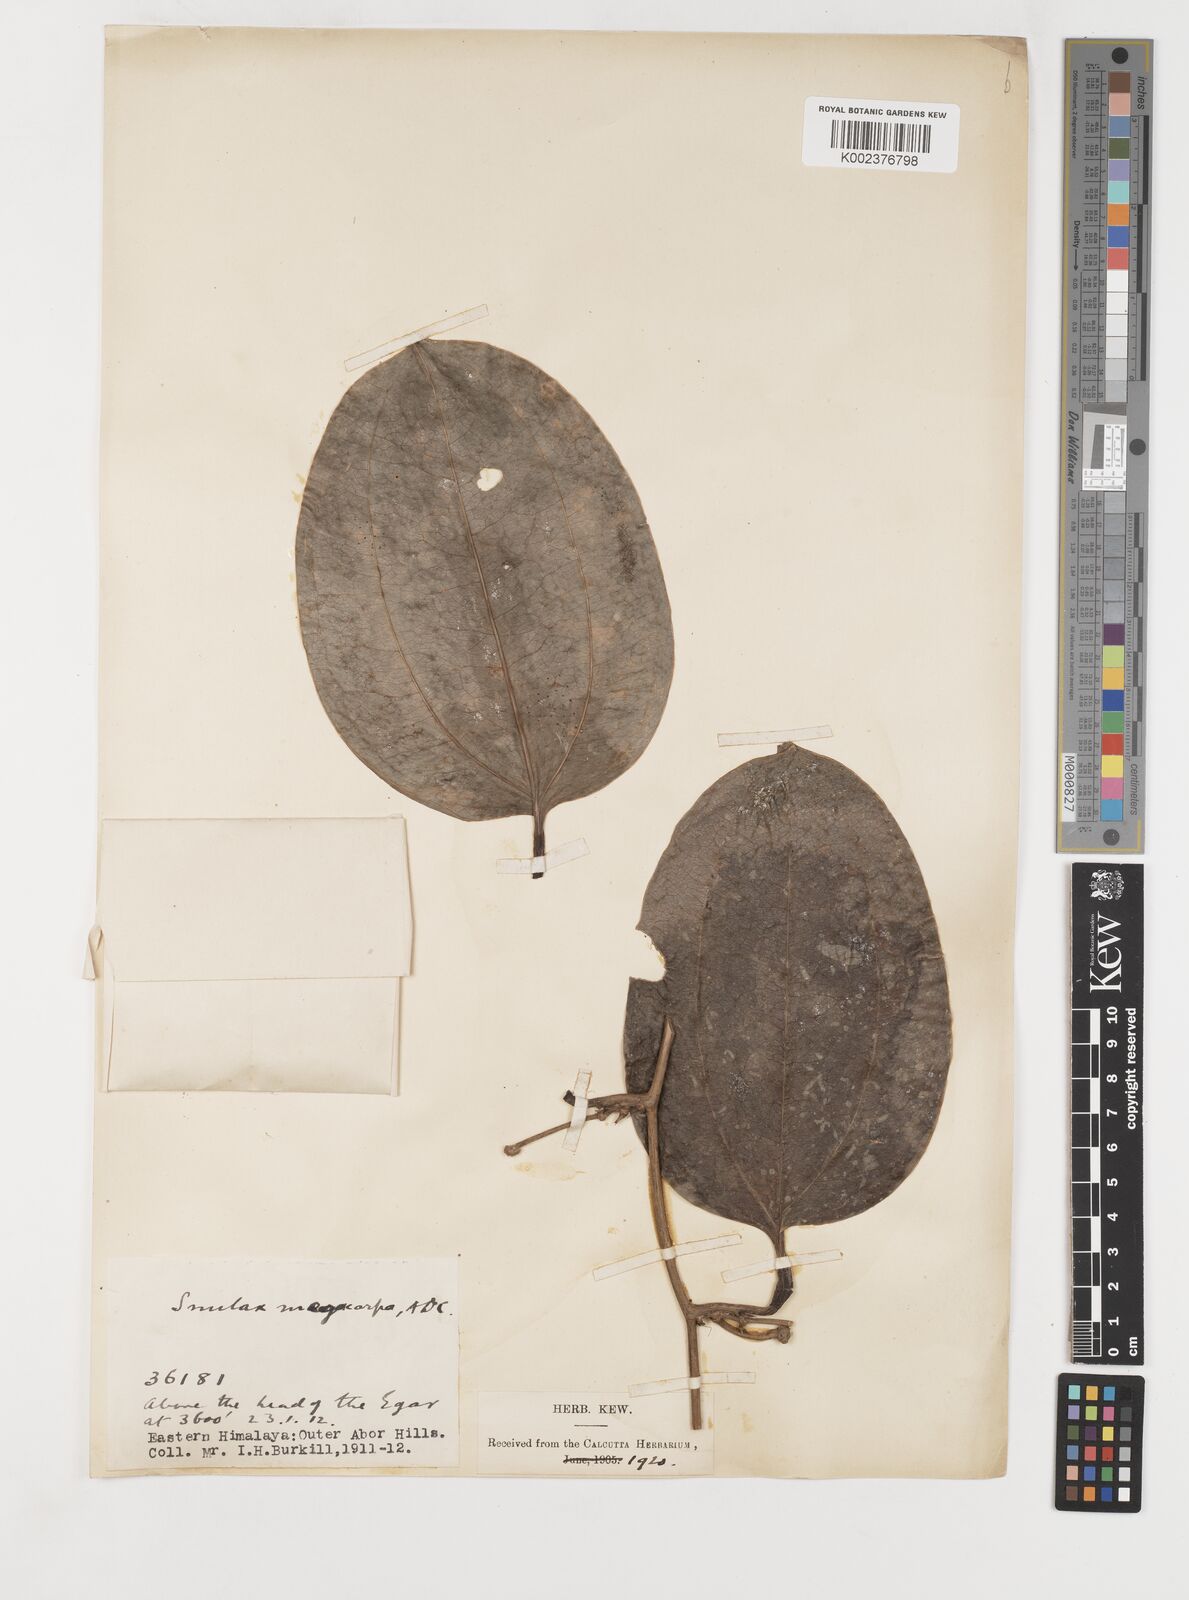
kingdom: Plantae
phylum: Tracheophyta
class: Liliopsida
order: Liliales
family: Smilacaceae
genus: Smilax
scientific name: Smilax megacarpa
